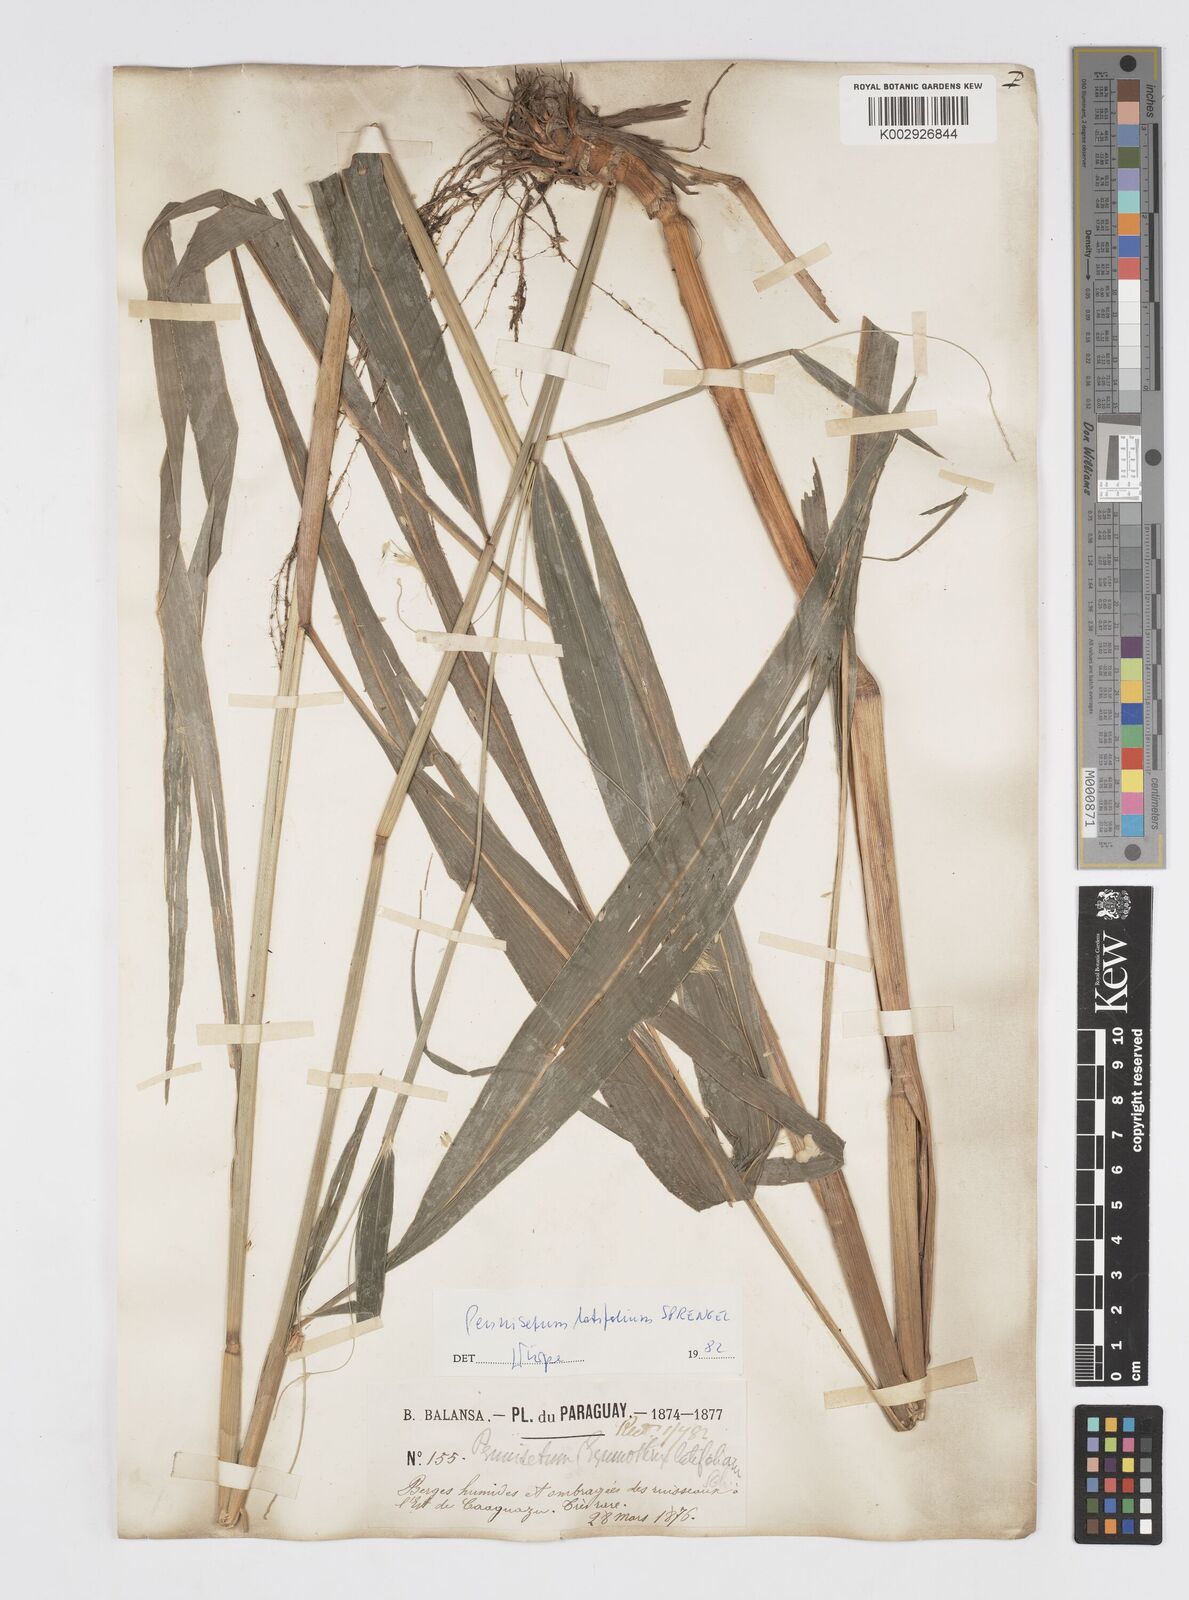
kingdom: Plantae
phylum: Tracheophyta
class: Liliopsida
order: Poales
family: Poaceae
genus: Cenchrus
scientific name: Cenchrus latifolius
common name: Sandbur
